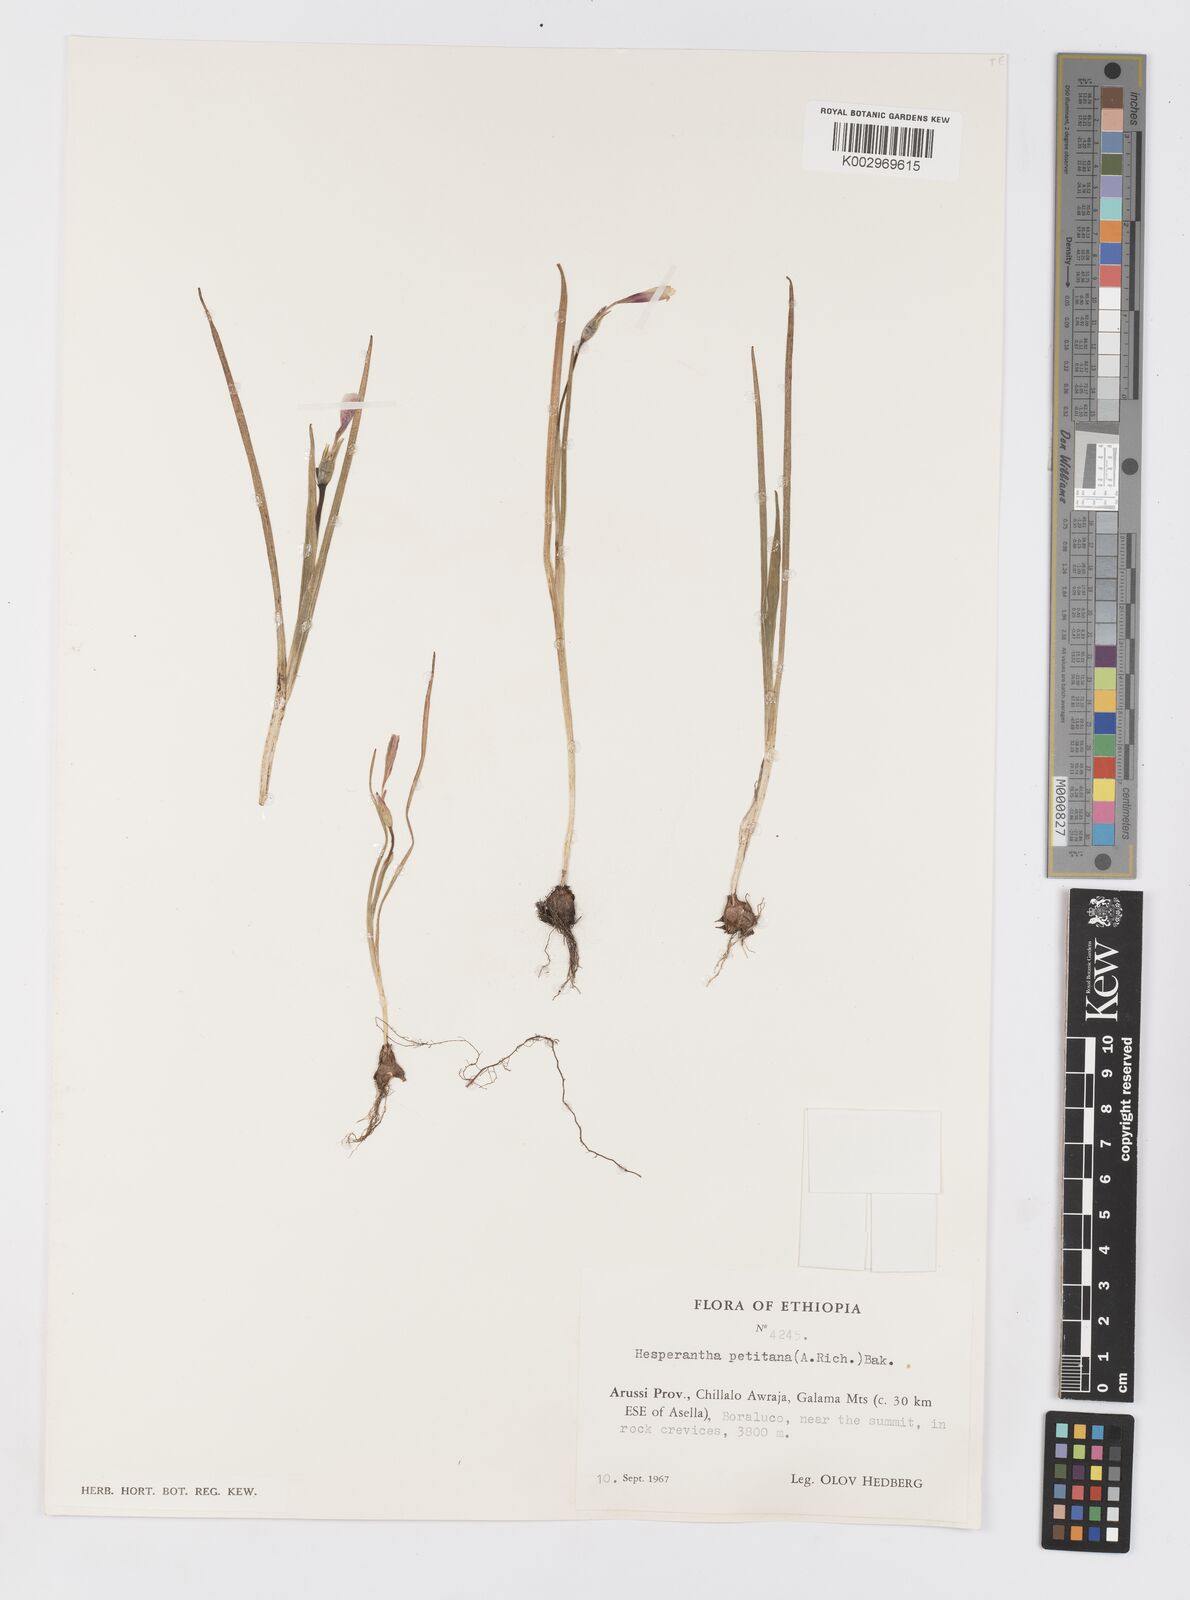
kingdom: Plantae
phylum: Tracheophyta
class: Liliopsida
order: Asparagales
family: Iridaceae
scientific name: Iridaceae
